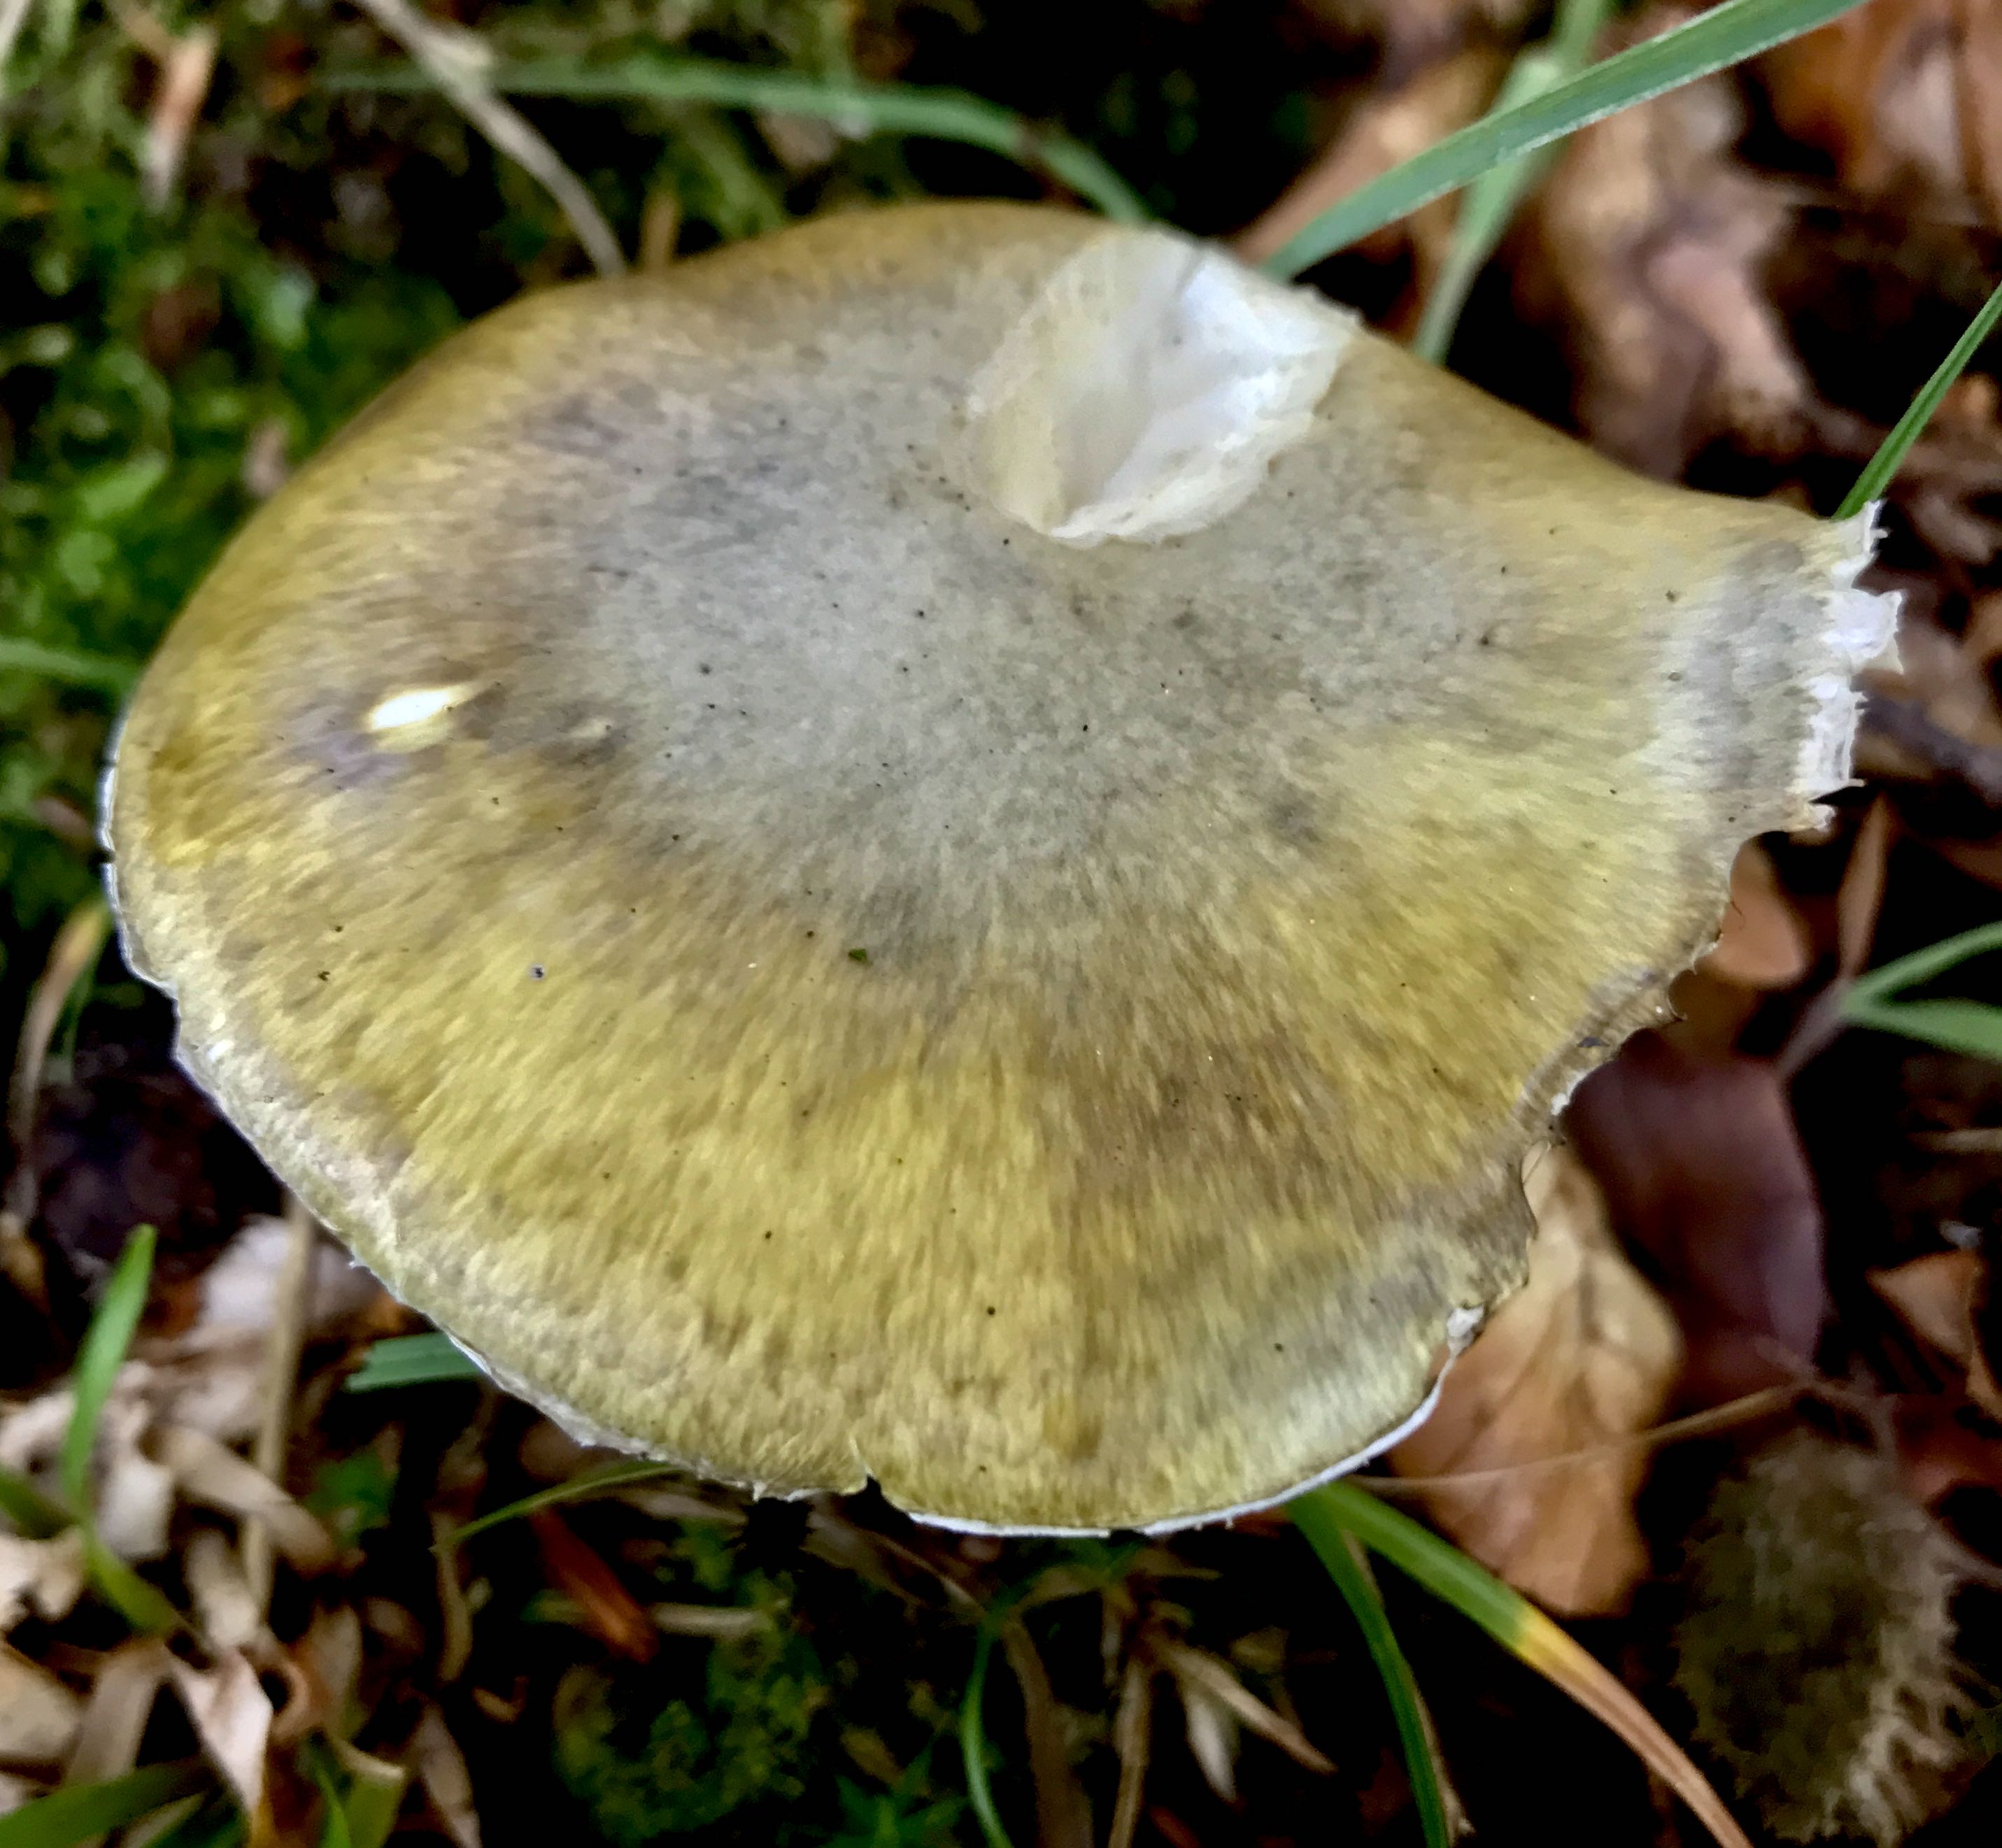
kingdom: Fungi
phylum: Basidiomycota
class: Agaricomycetes
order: Agaricales
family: Amanitaceae
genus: Amanita
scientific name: Amanita phalloides
